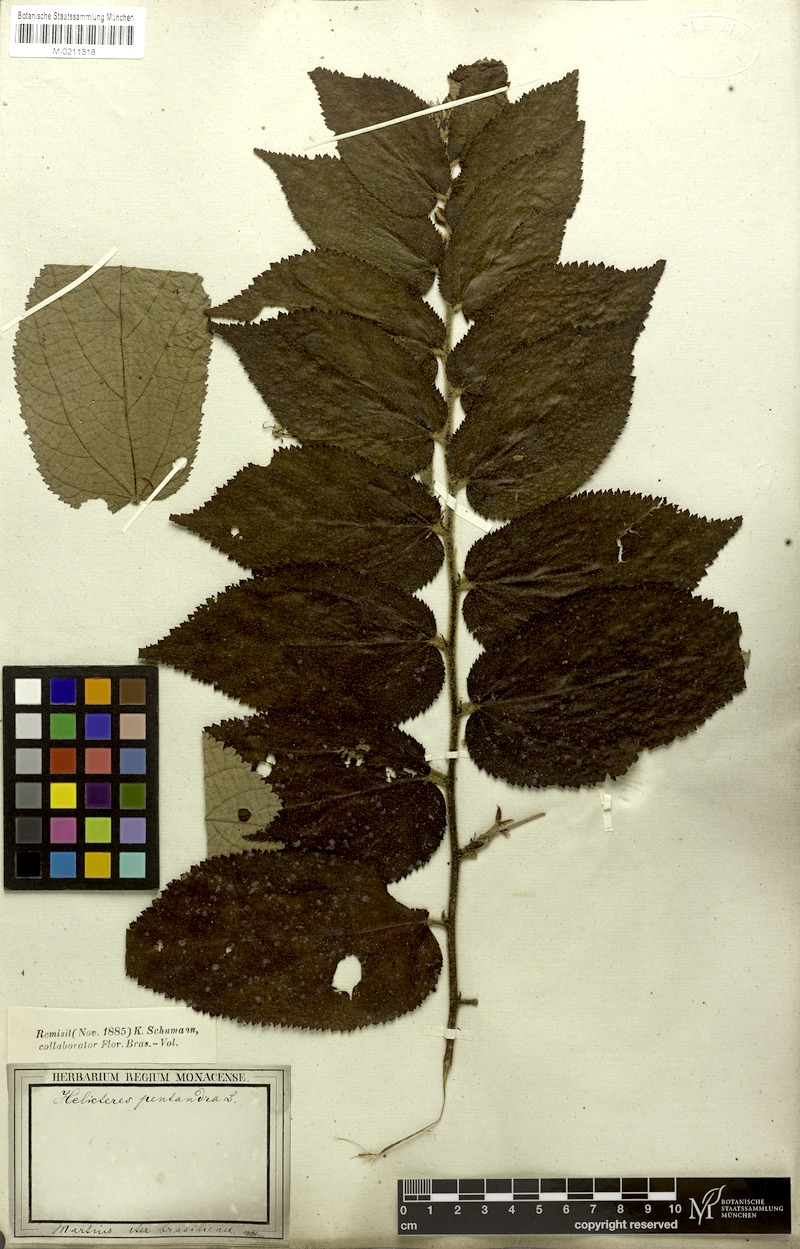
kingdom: Plantae
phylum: Tracheophyta
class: Magnoliopsida
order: Malvales
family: Malvaceae
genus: Helicteres
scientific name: Helicteres pentandra
